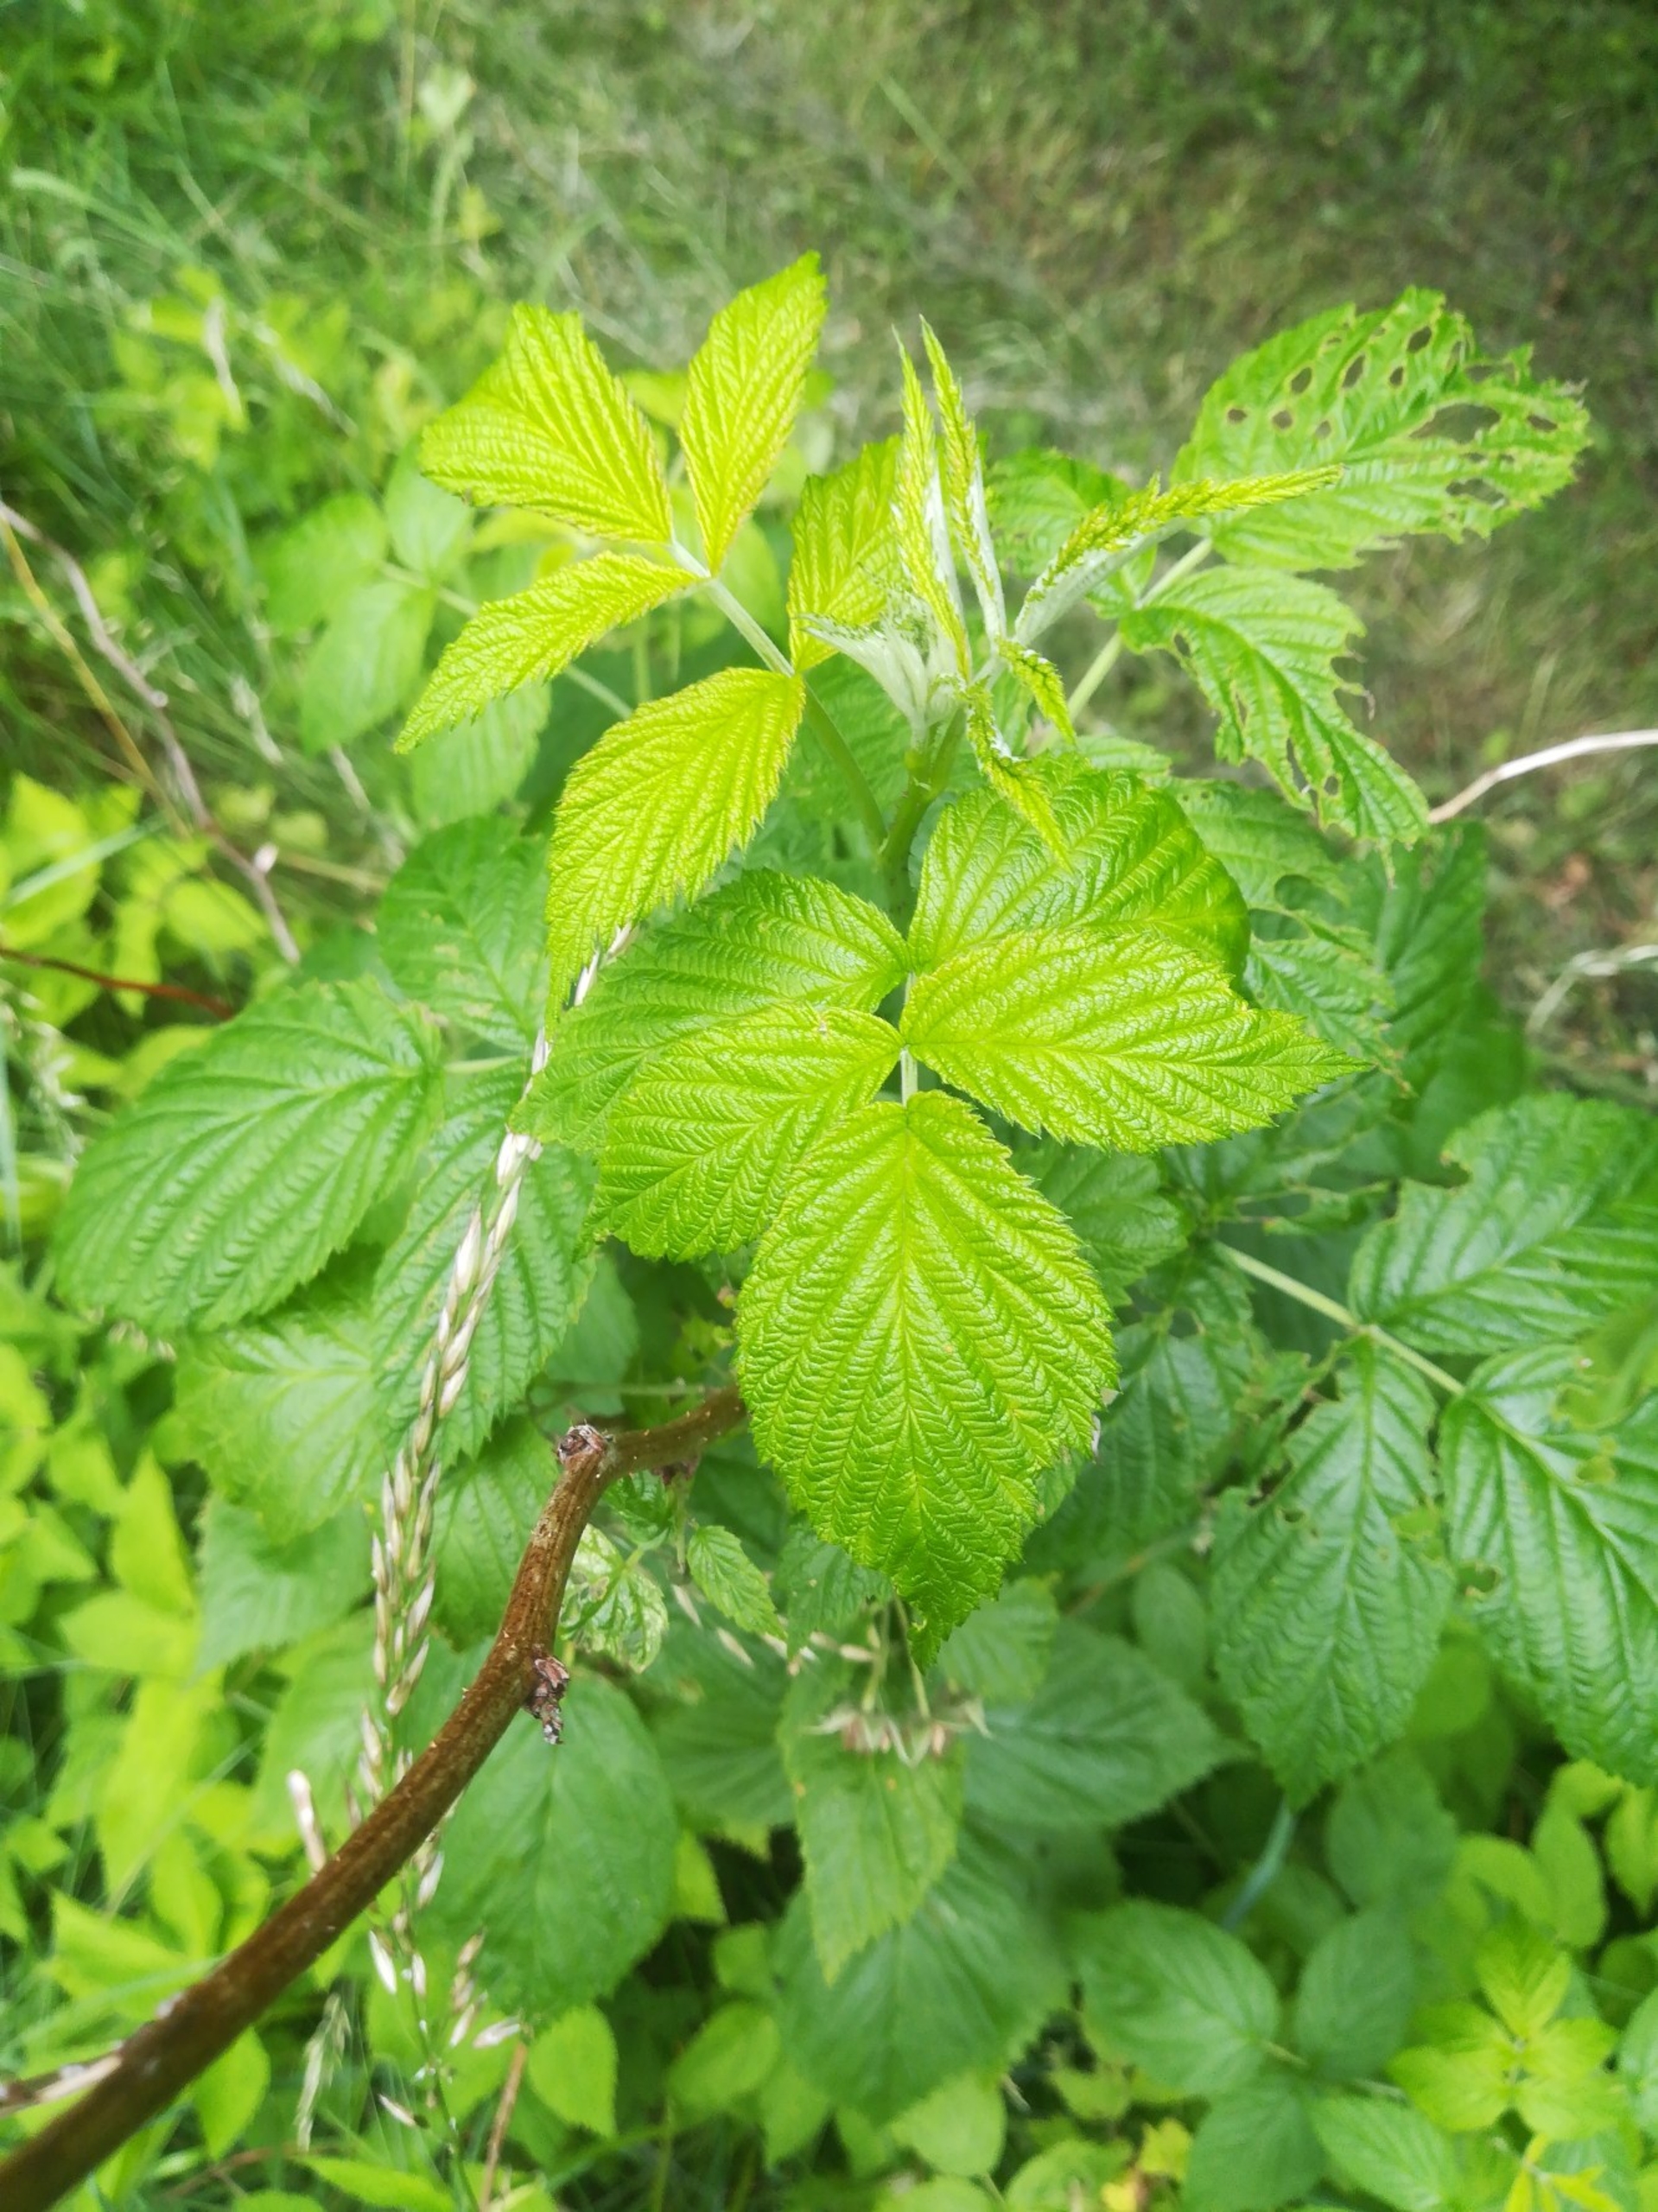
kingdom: Plantae
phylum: Tracheophyta
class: Magnoliopsida
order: Rosales
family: Rosaceae
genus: Rubus
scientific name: Rubus idaeus
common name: Hindbær
